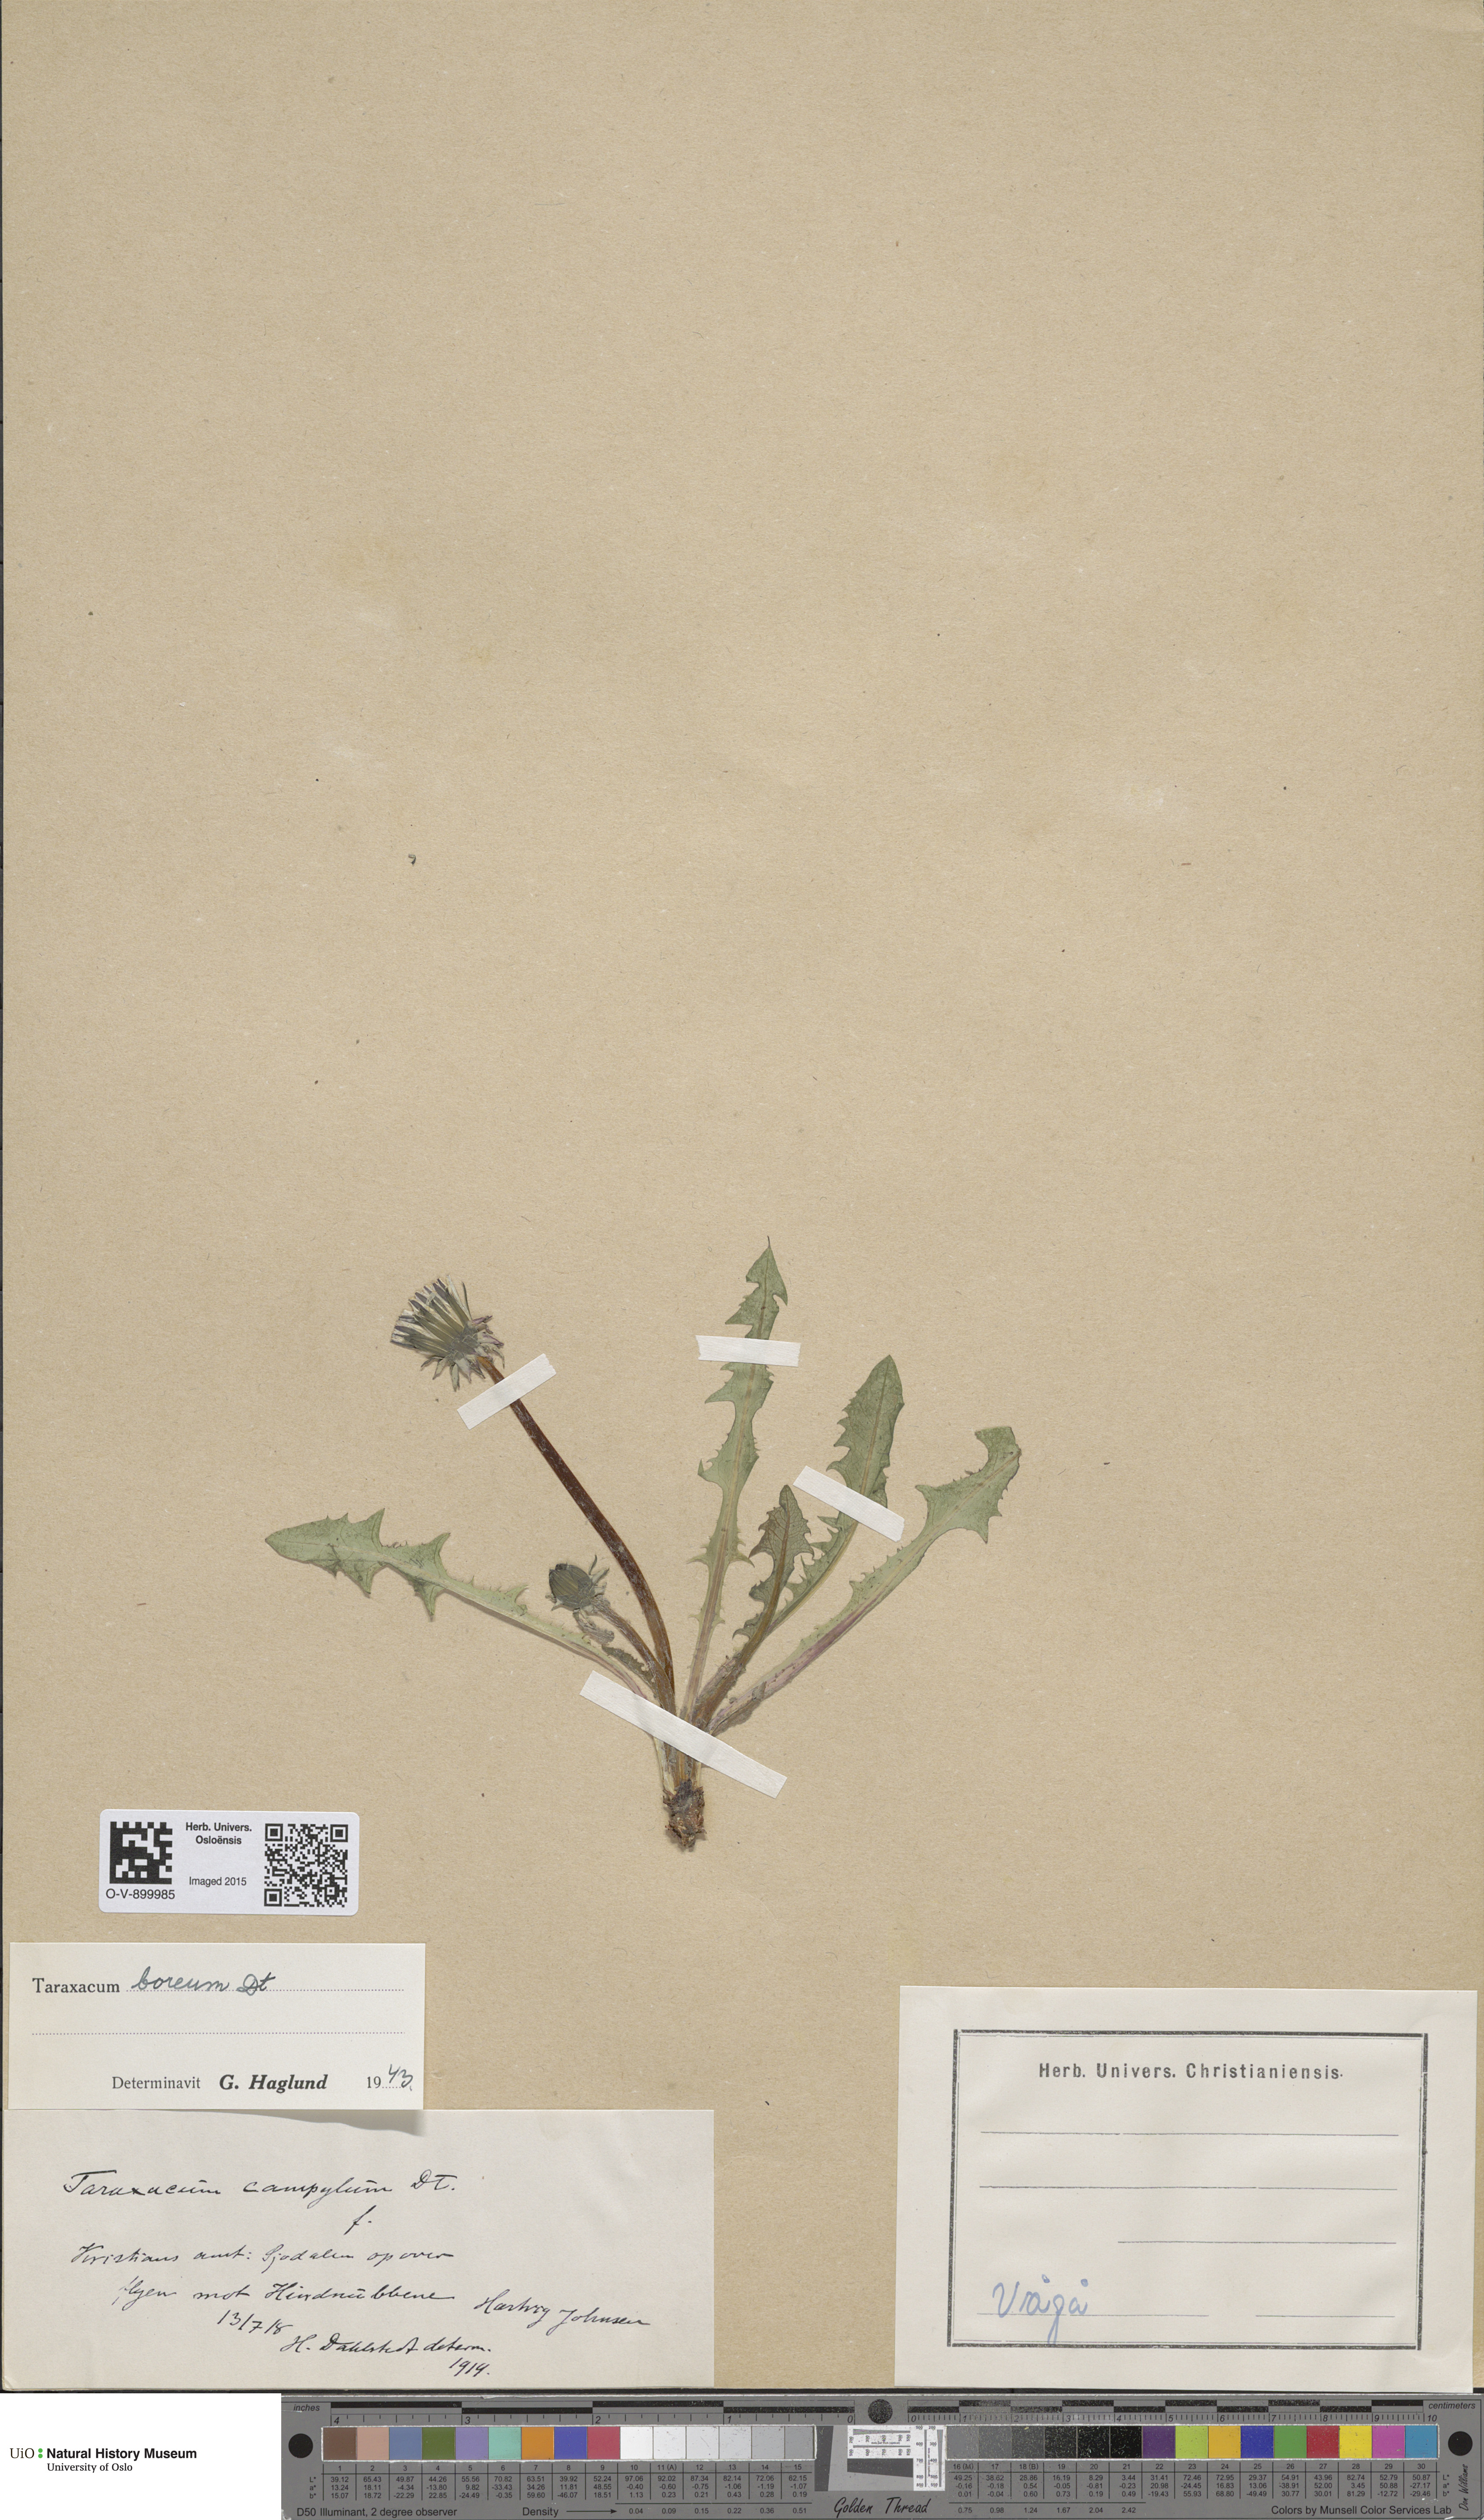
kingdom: Plantae
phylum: Tracheophyta
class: Magnoliopsida
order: Asterales
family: Asteraceae
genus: Taraxacum
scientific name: Taraxacum septentrionale
